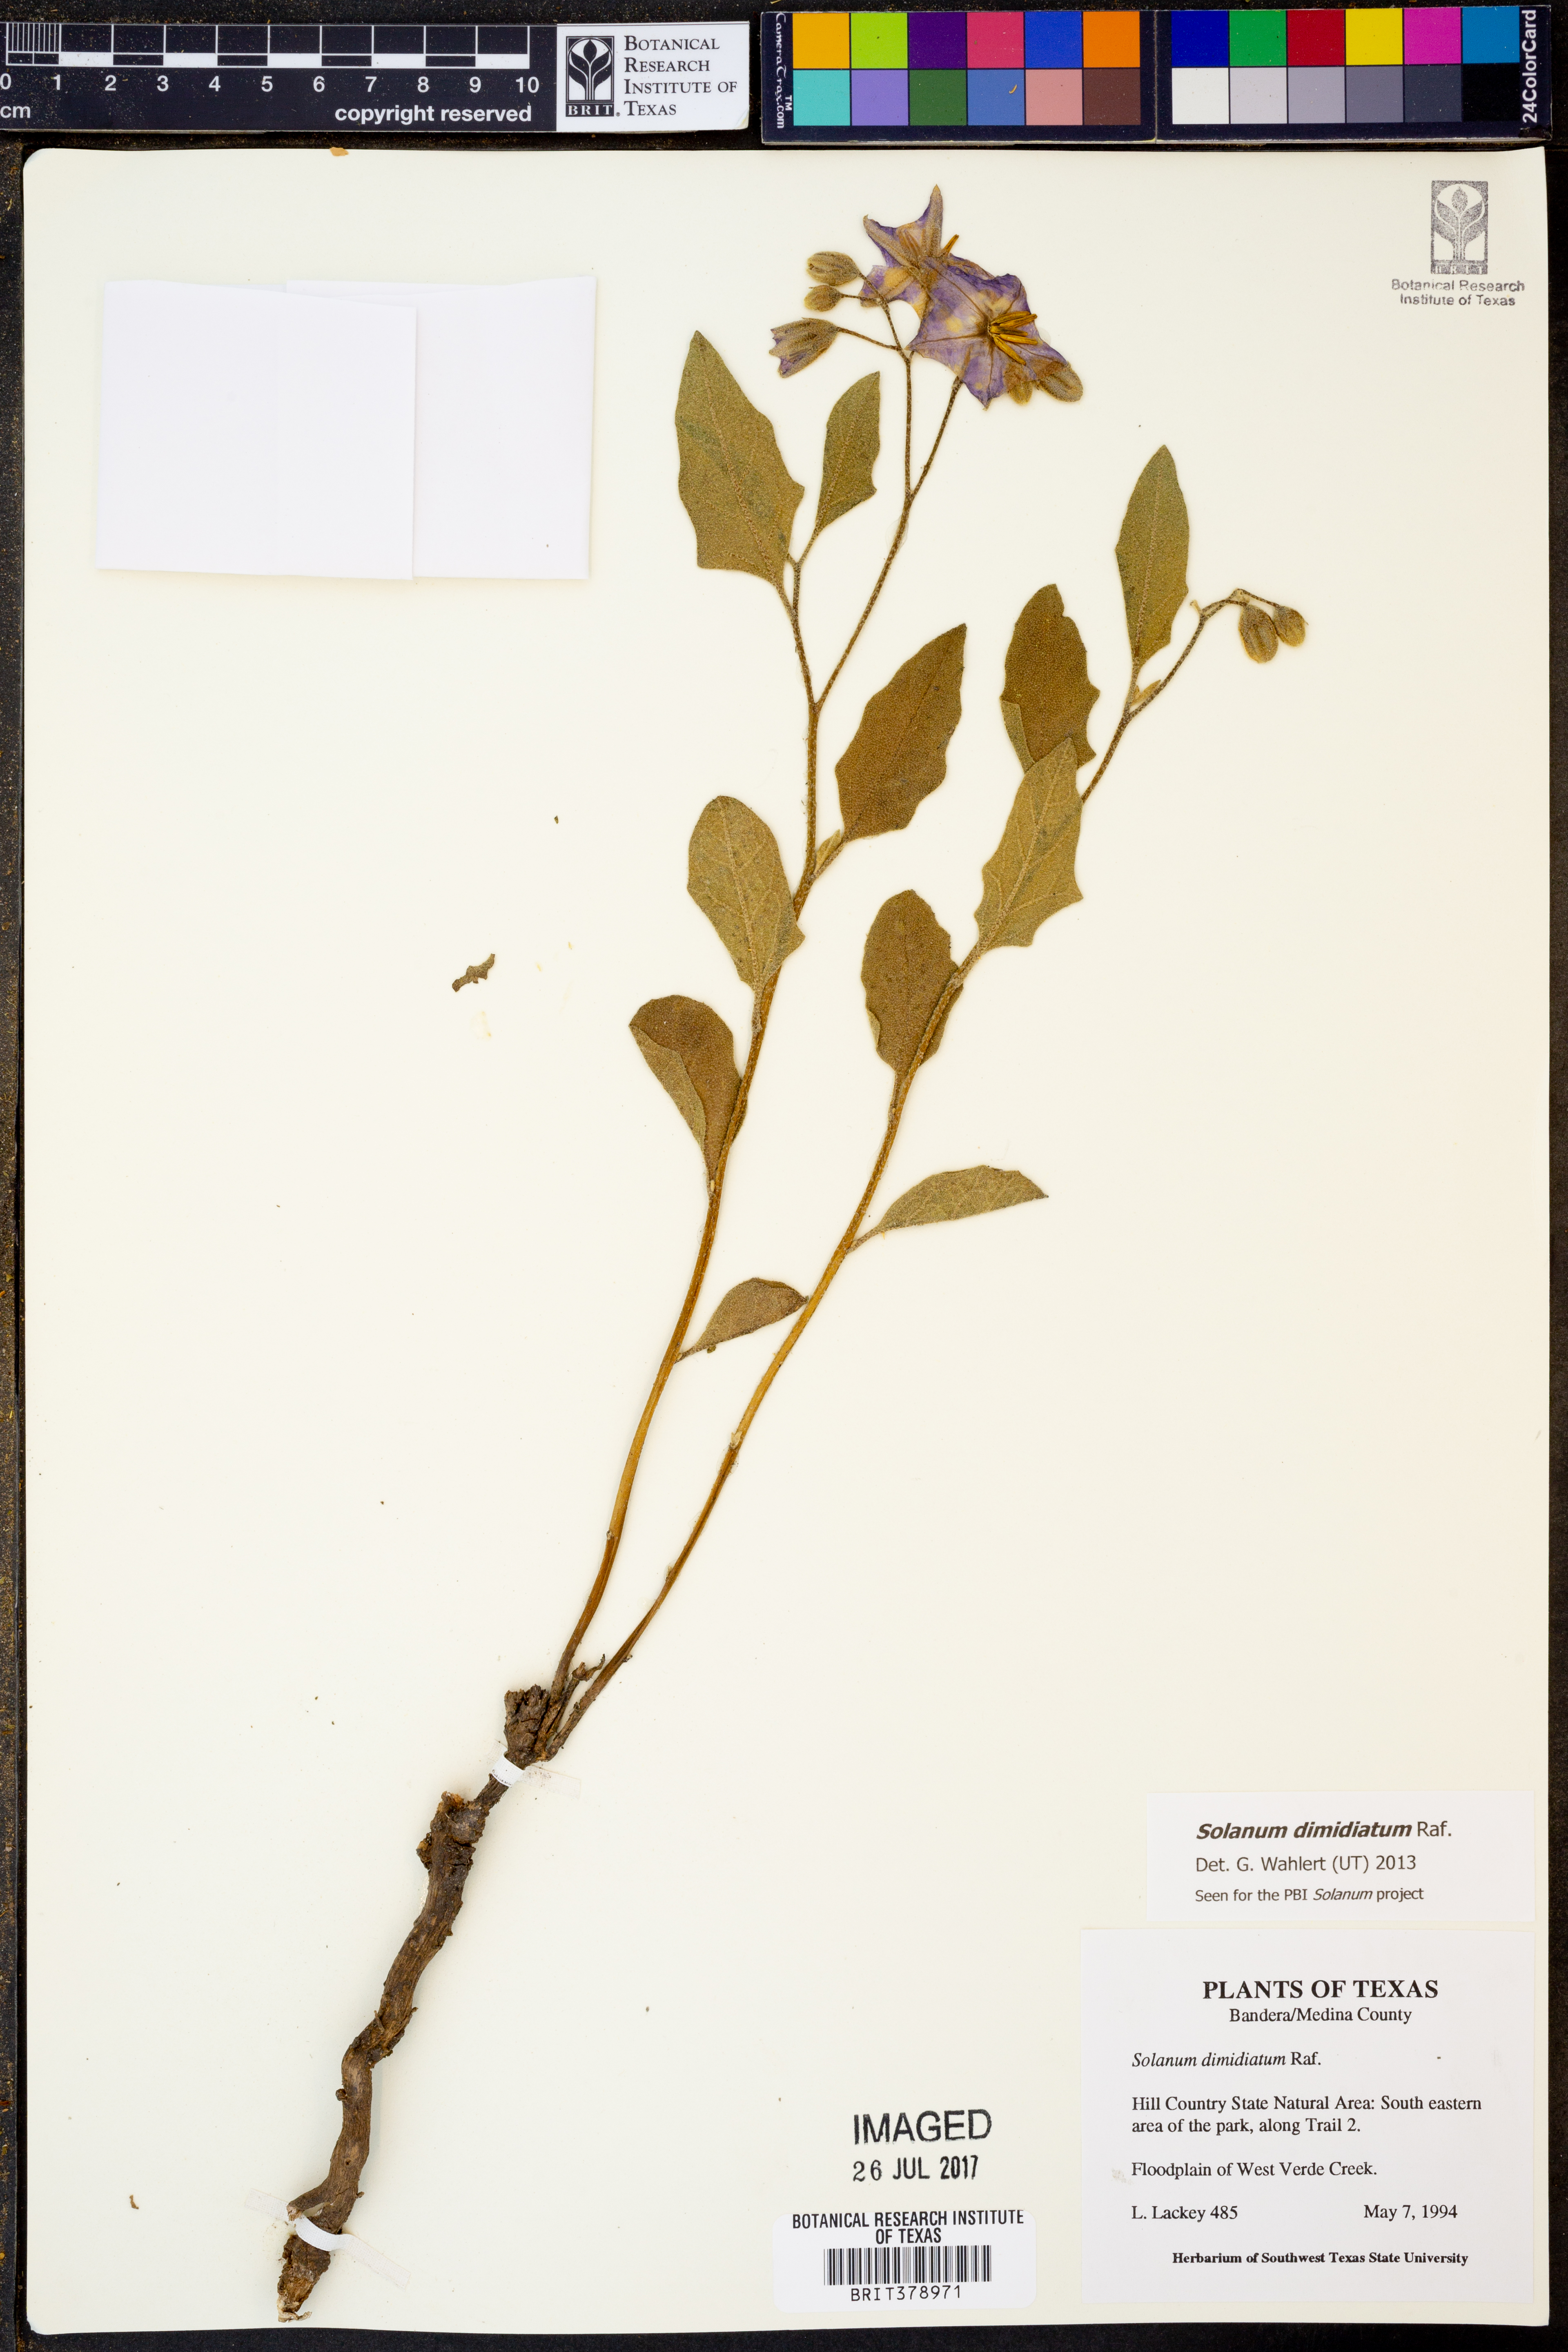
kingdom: Plantae
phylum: Tracheophyta
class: Magnoliopsida
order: Solanales
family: Solanaceae
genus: Solanum
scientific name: Solanum dimidiatum
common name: Carolina horse-nettle
